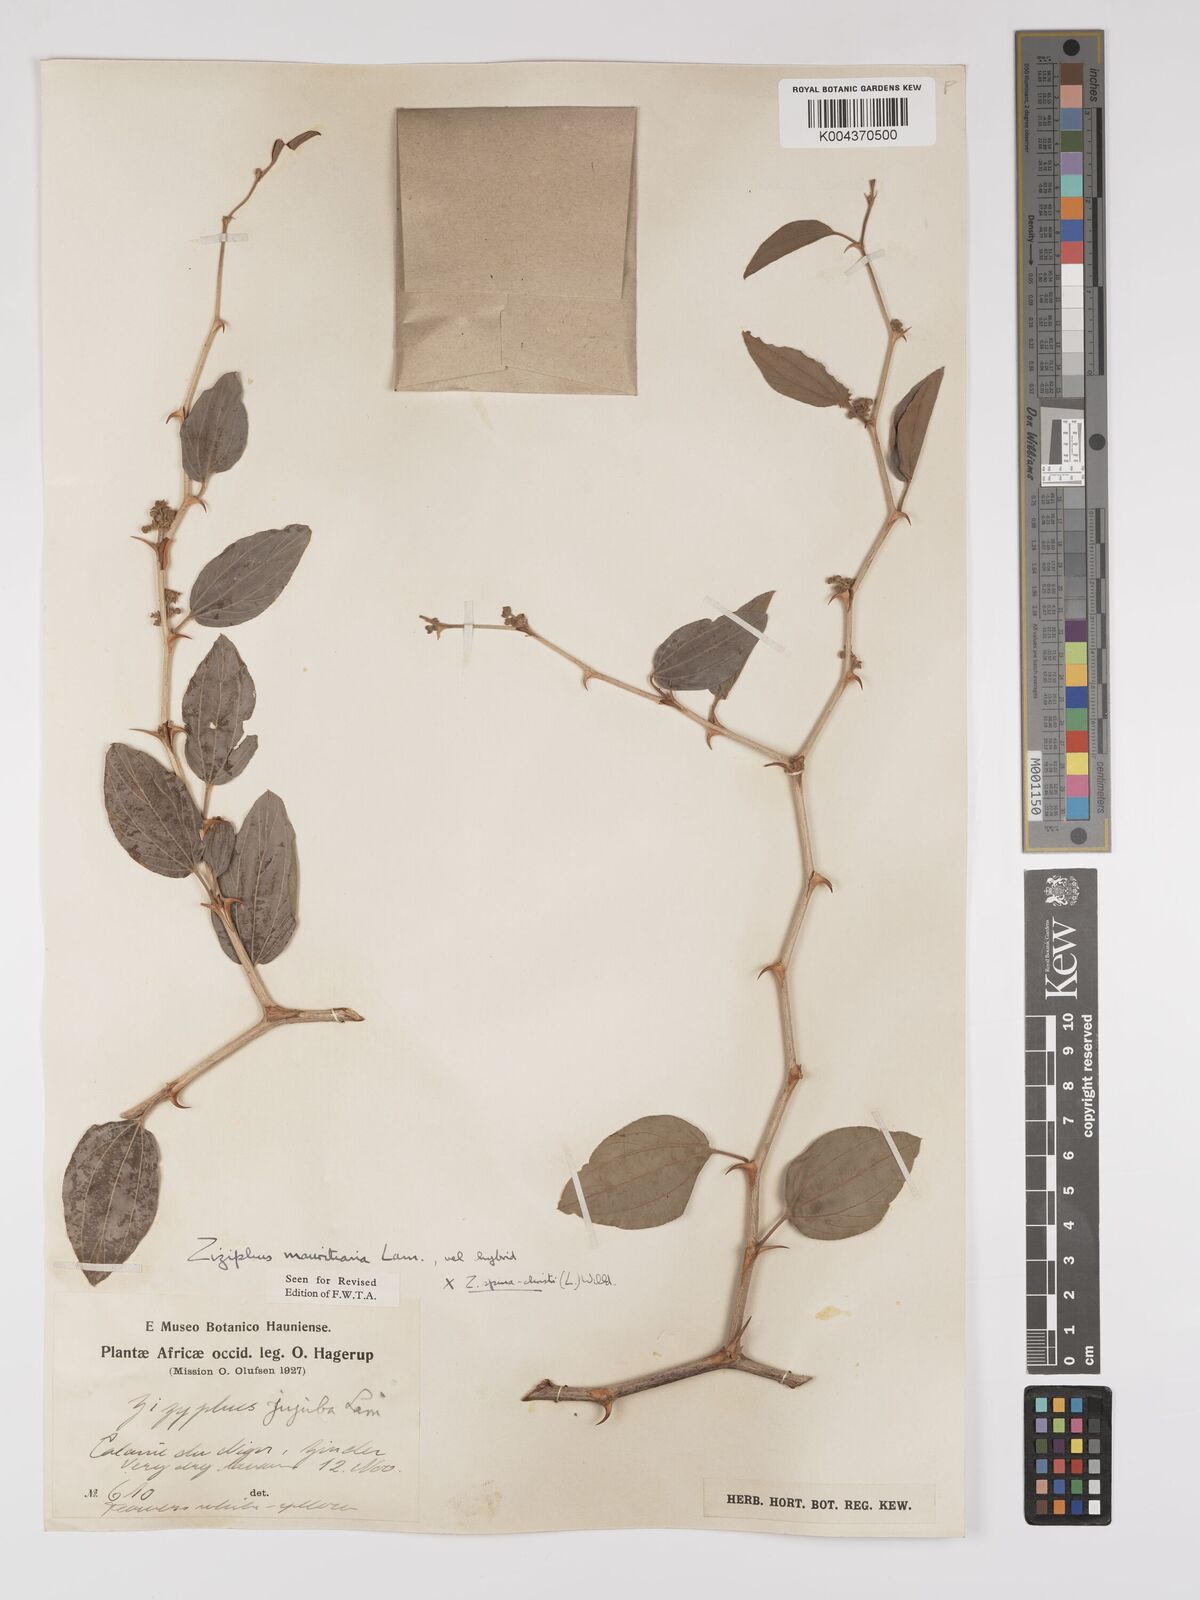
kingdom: Plantae
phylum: Tracheophyta
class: Magnoliopsida
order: Rosales
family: Rhamnaceae
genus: Ziziphus
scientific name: Ziziphus mauritiana
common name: Indian jujube
